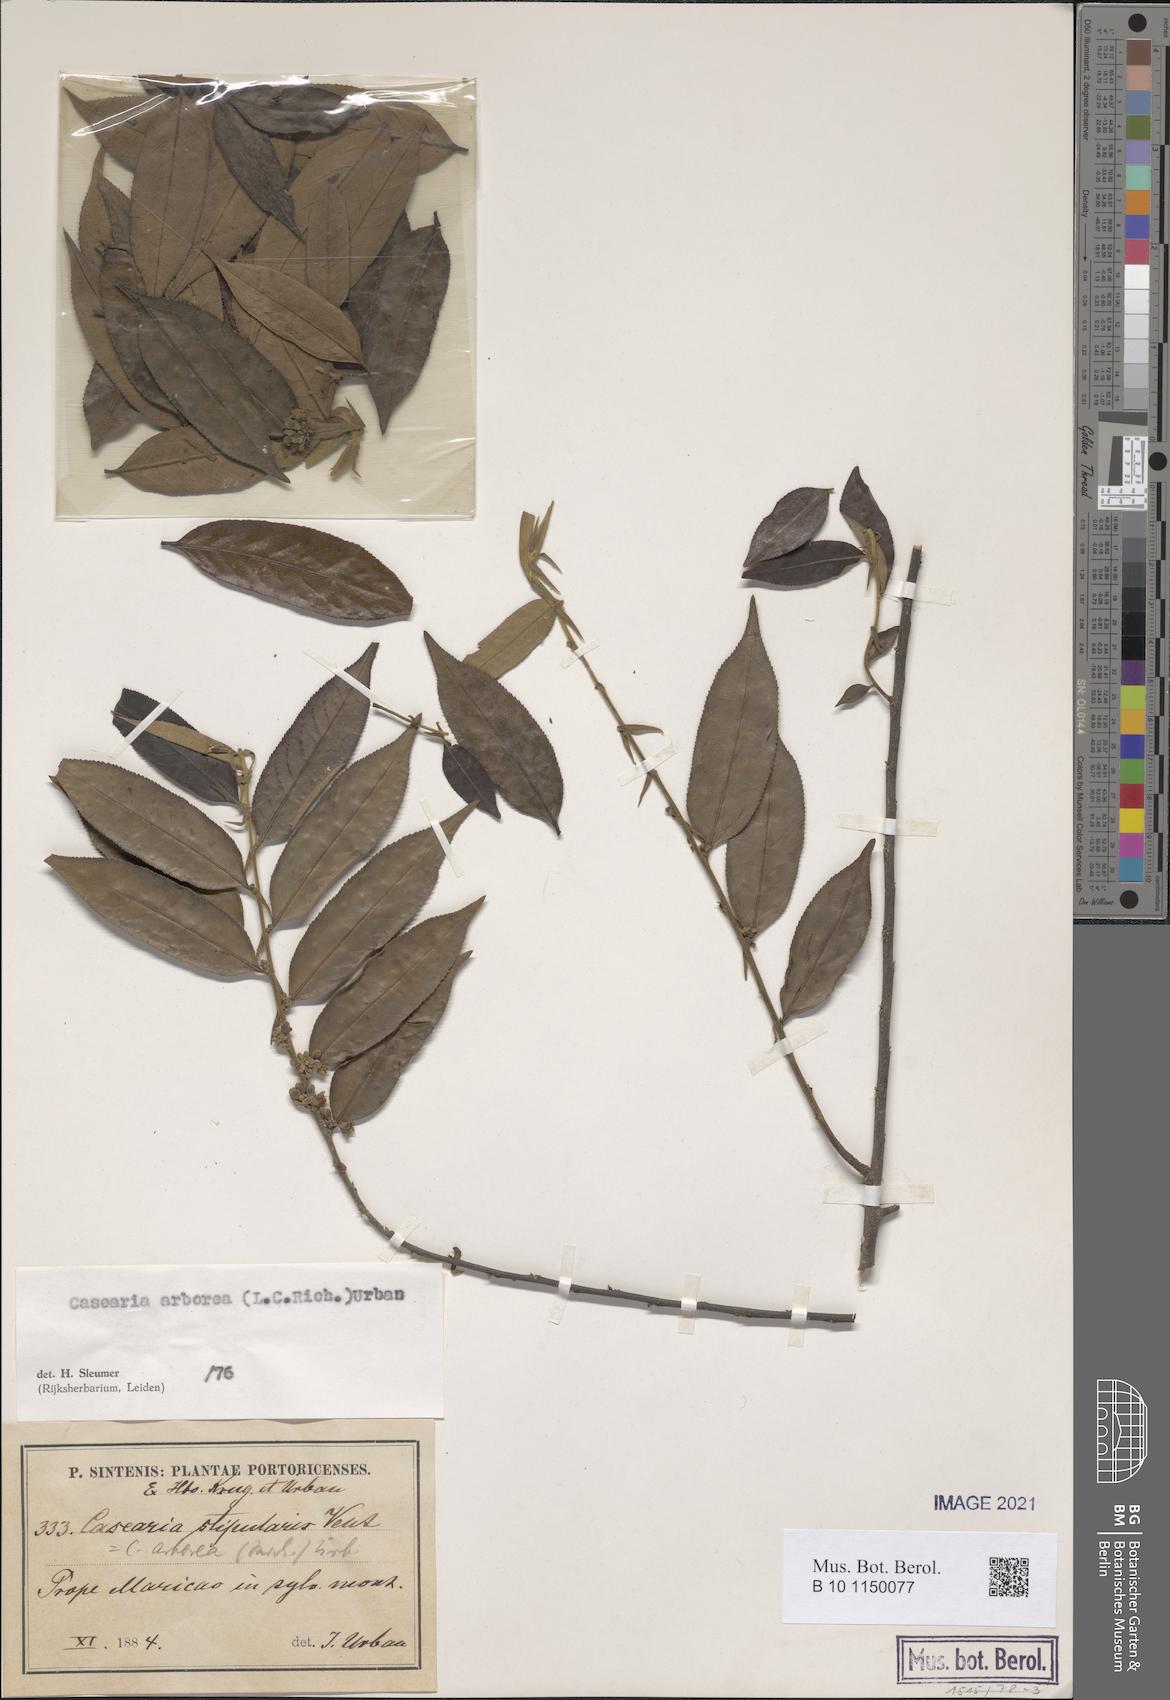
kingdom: Plantae
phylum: Tracheophyta
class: Magnoliopsida
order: Malpighiales
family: Salicaceae
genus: Casearia
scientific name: Casearia arborea
